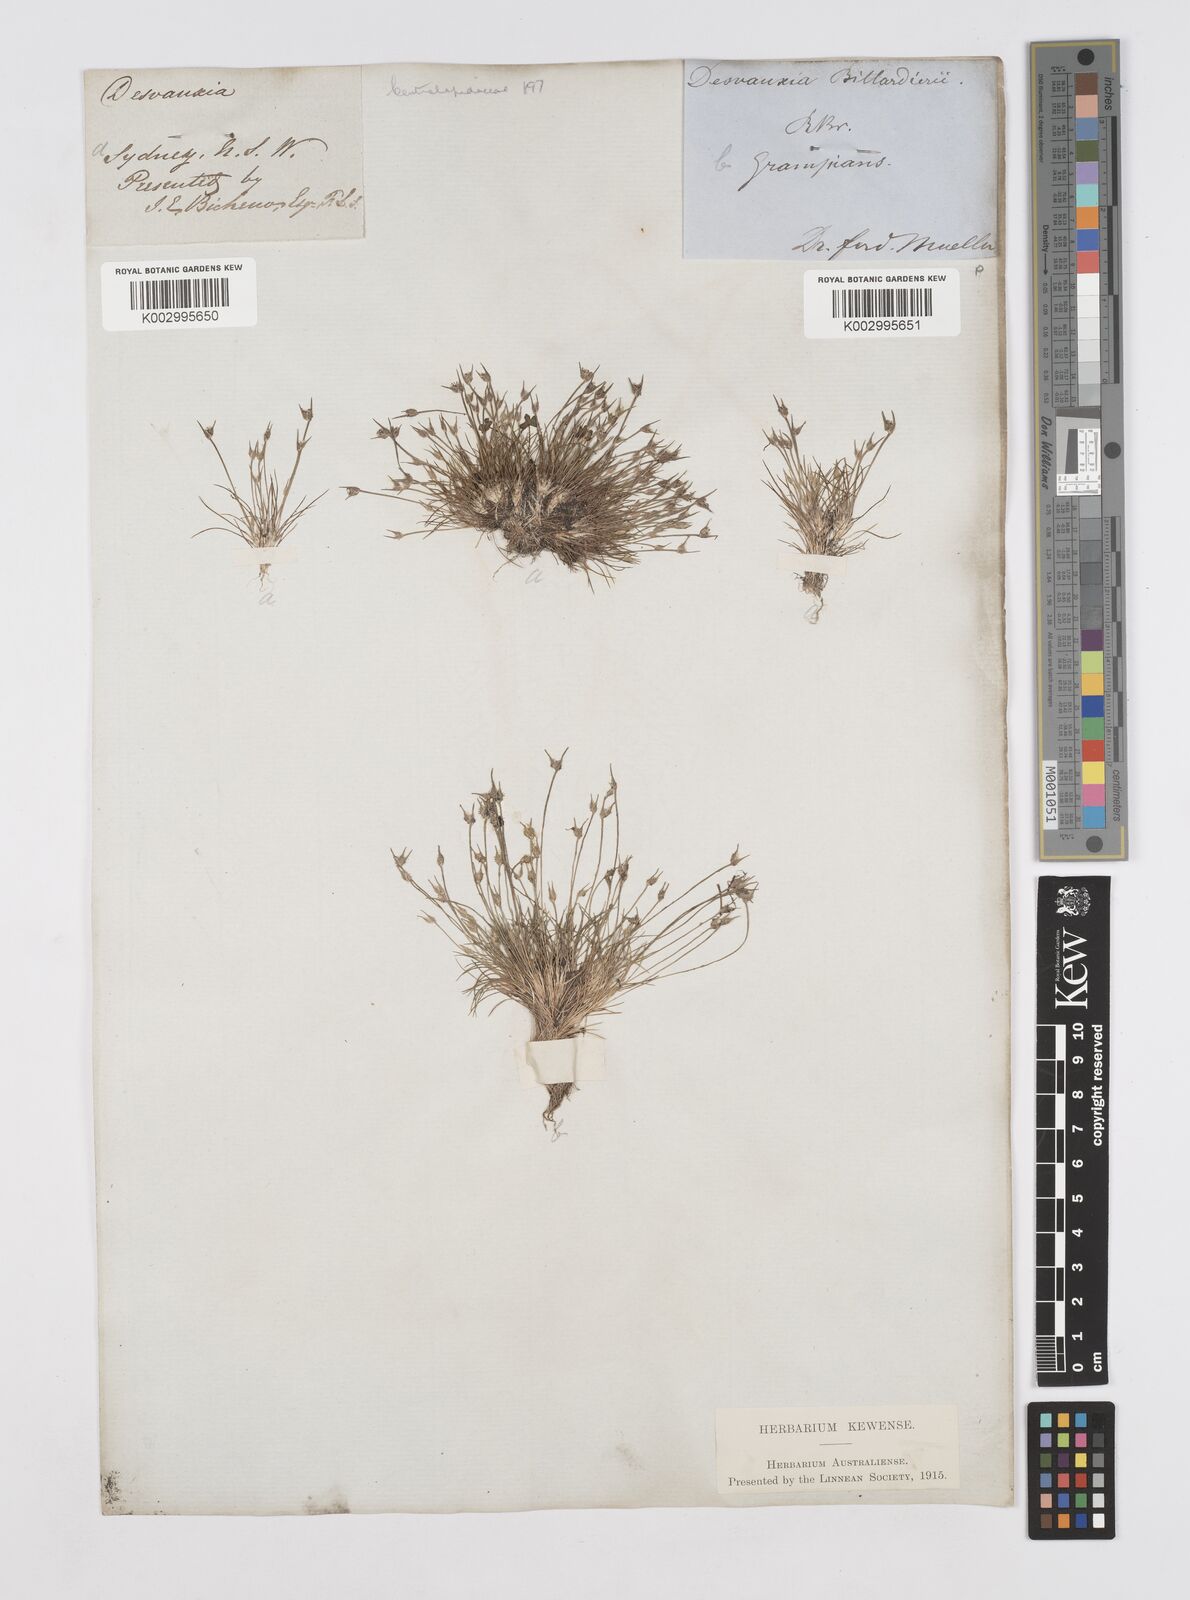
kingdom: Plantae
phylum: Tracheophyta
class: Liliopsida
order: Poales
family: Restionaceae
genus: Centrolepis
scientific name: Centrolepis fascicularis
